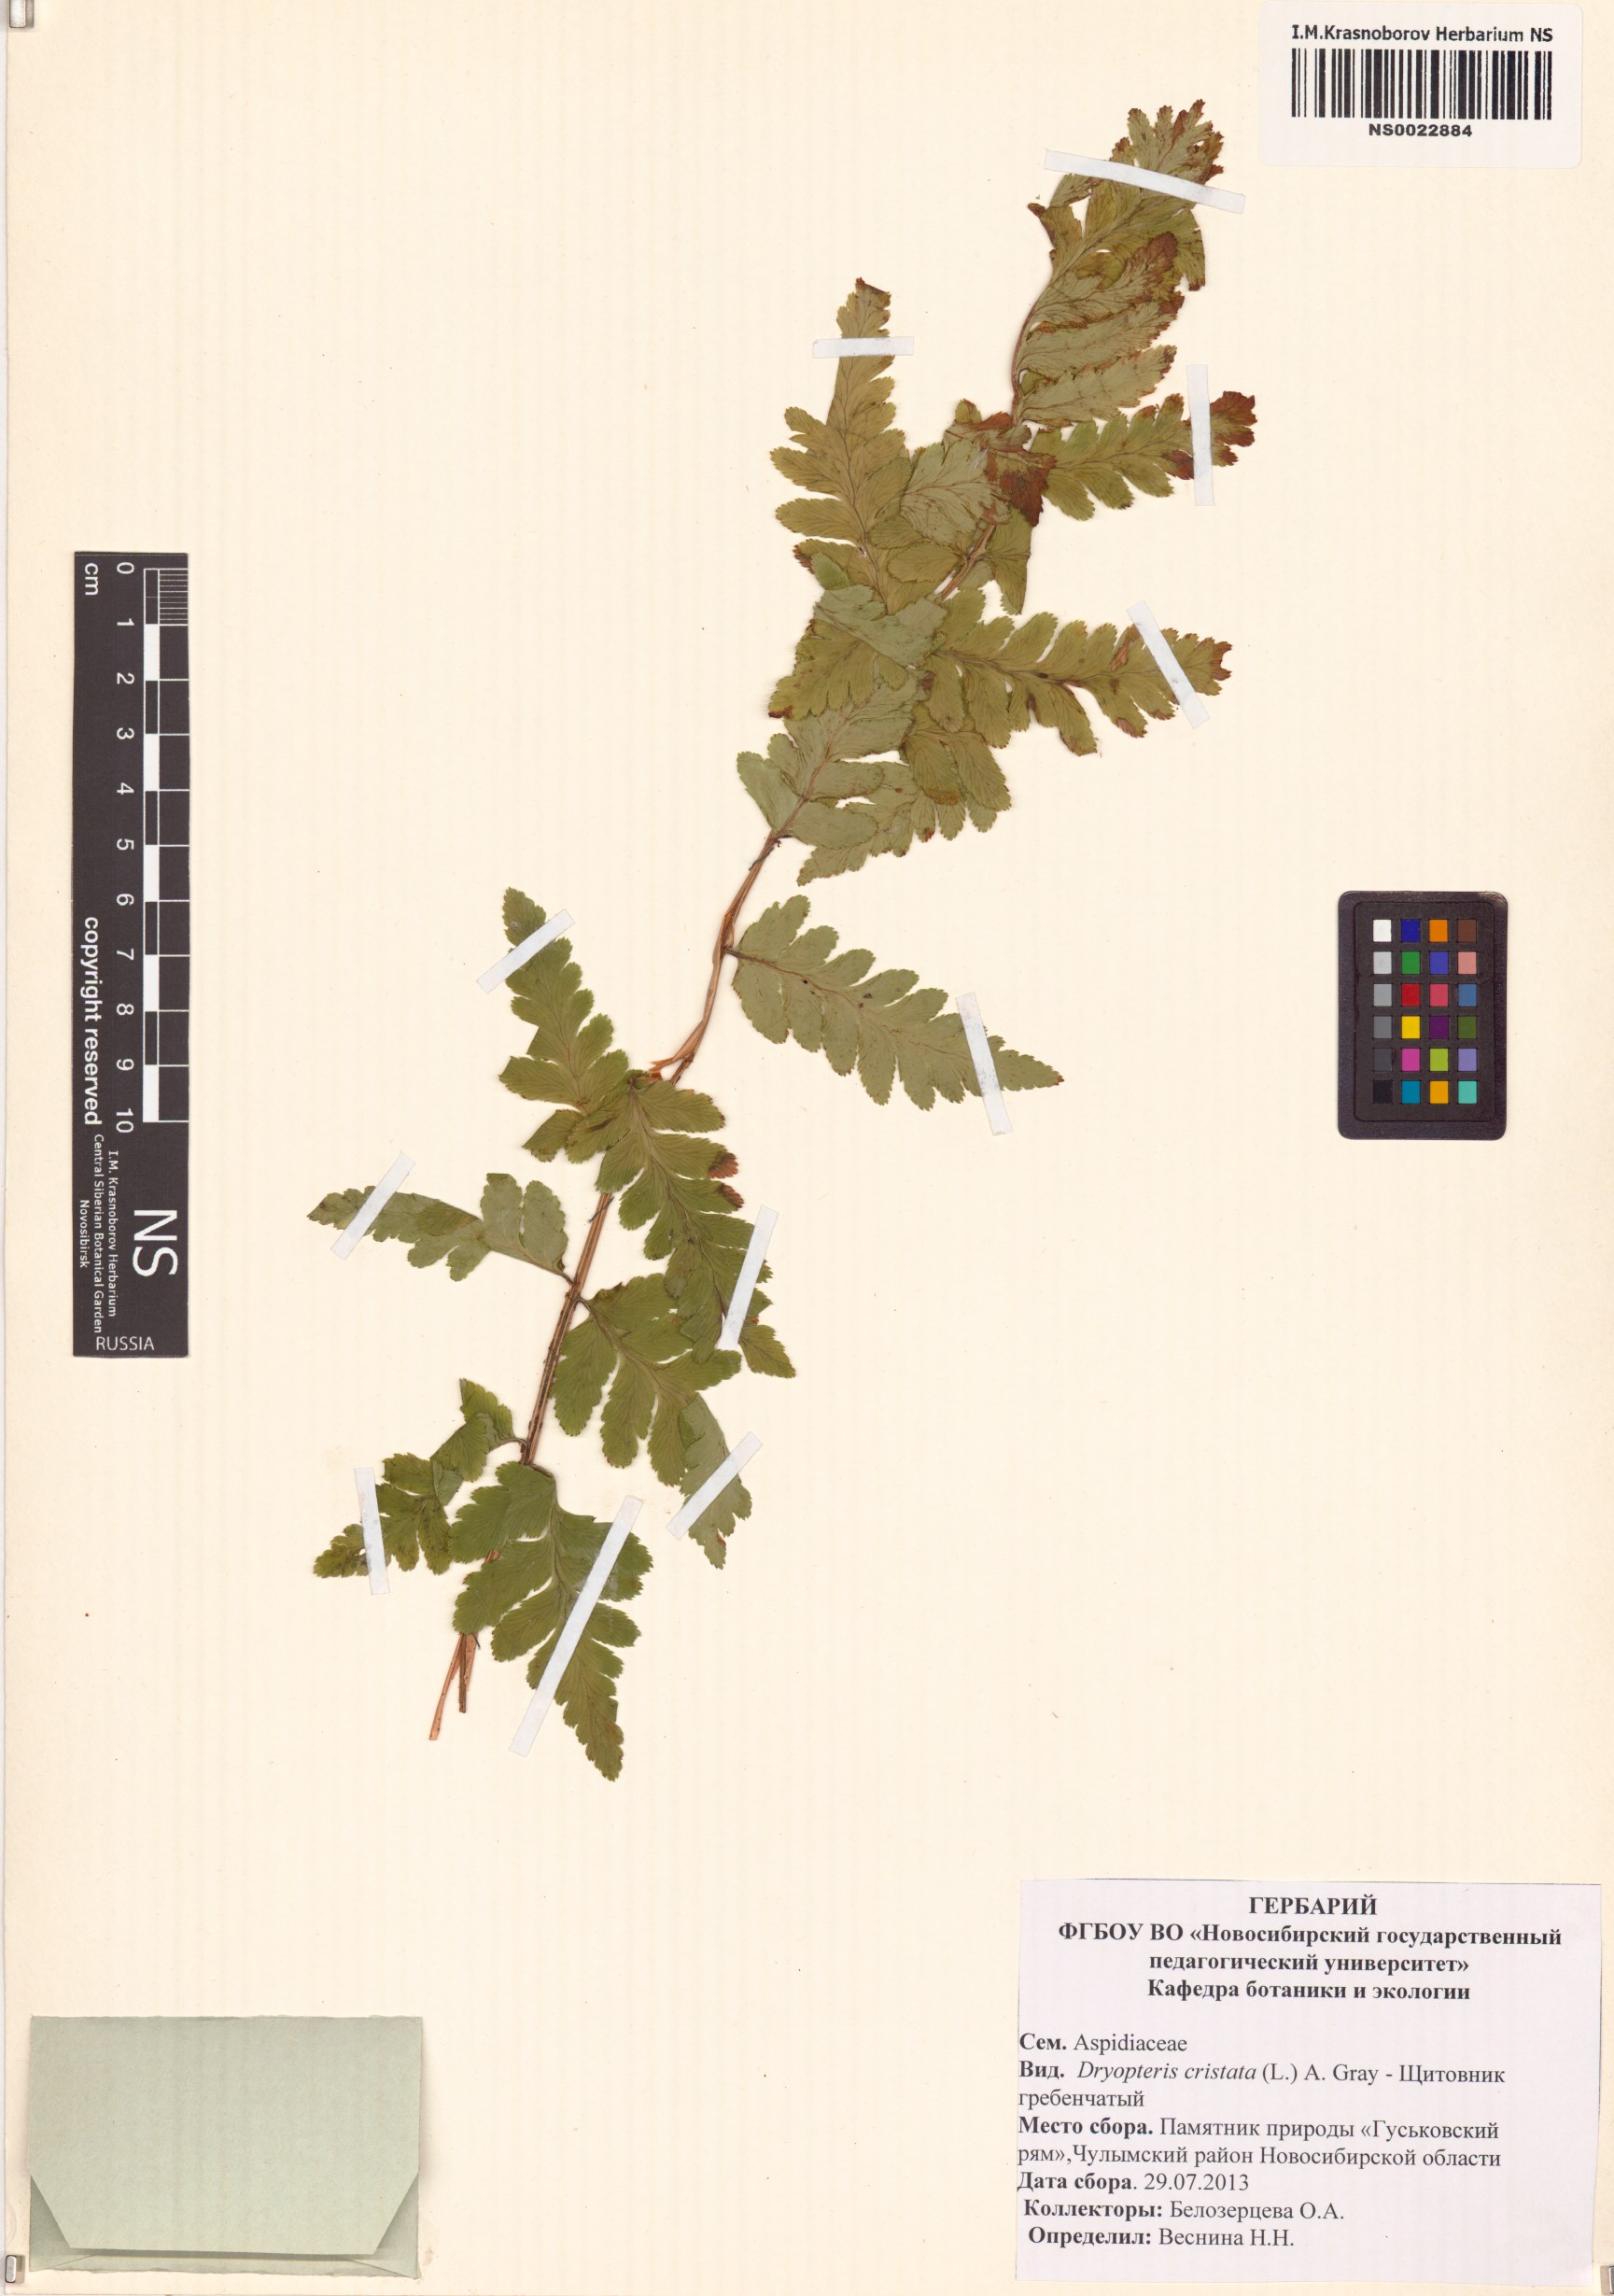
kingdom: Plantae
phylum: Tracheophyta
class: Polypodiopsida
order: Polypodiales
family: Dryopteridaceae
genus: Dryopteris
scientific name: Dryopteris cristata
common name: Crested wood fern
